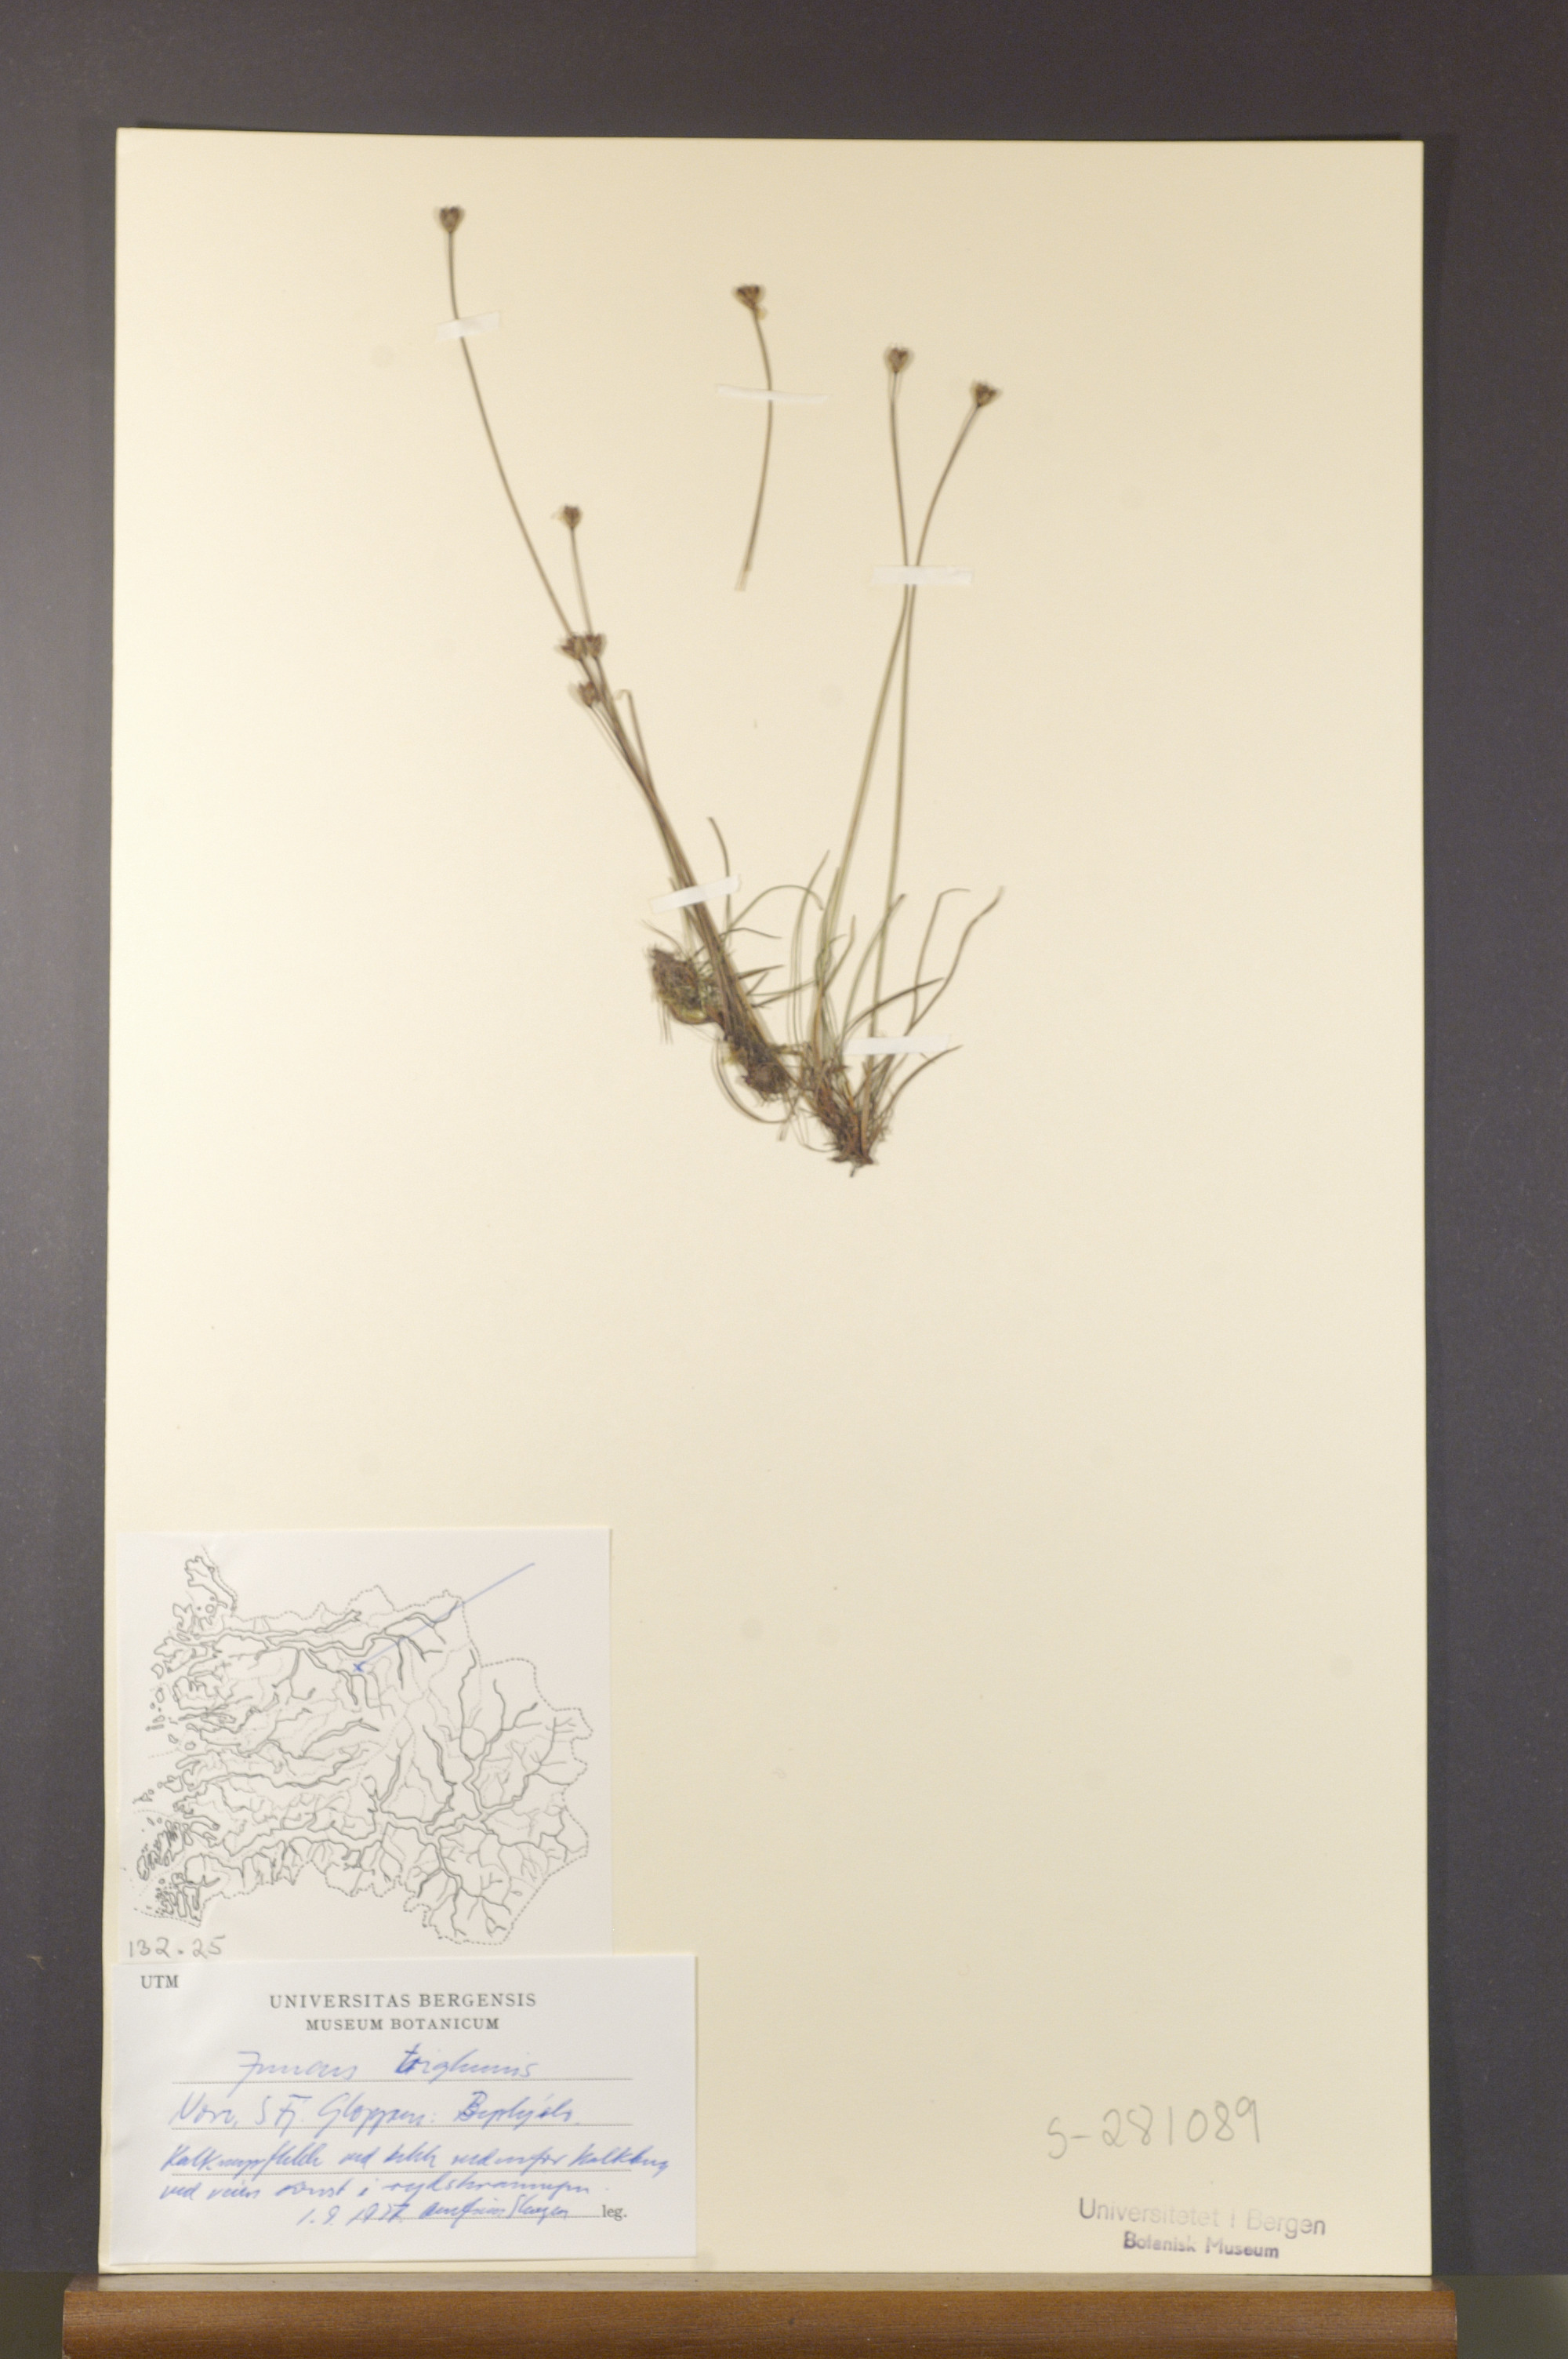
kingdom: Plantae
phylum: Tracheophyta
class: Liliopsida
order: Poales
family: Juncaceae
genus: Juncus
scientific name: Juncus triglumis
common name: Three-flowered rush
